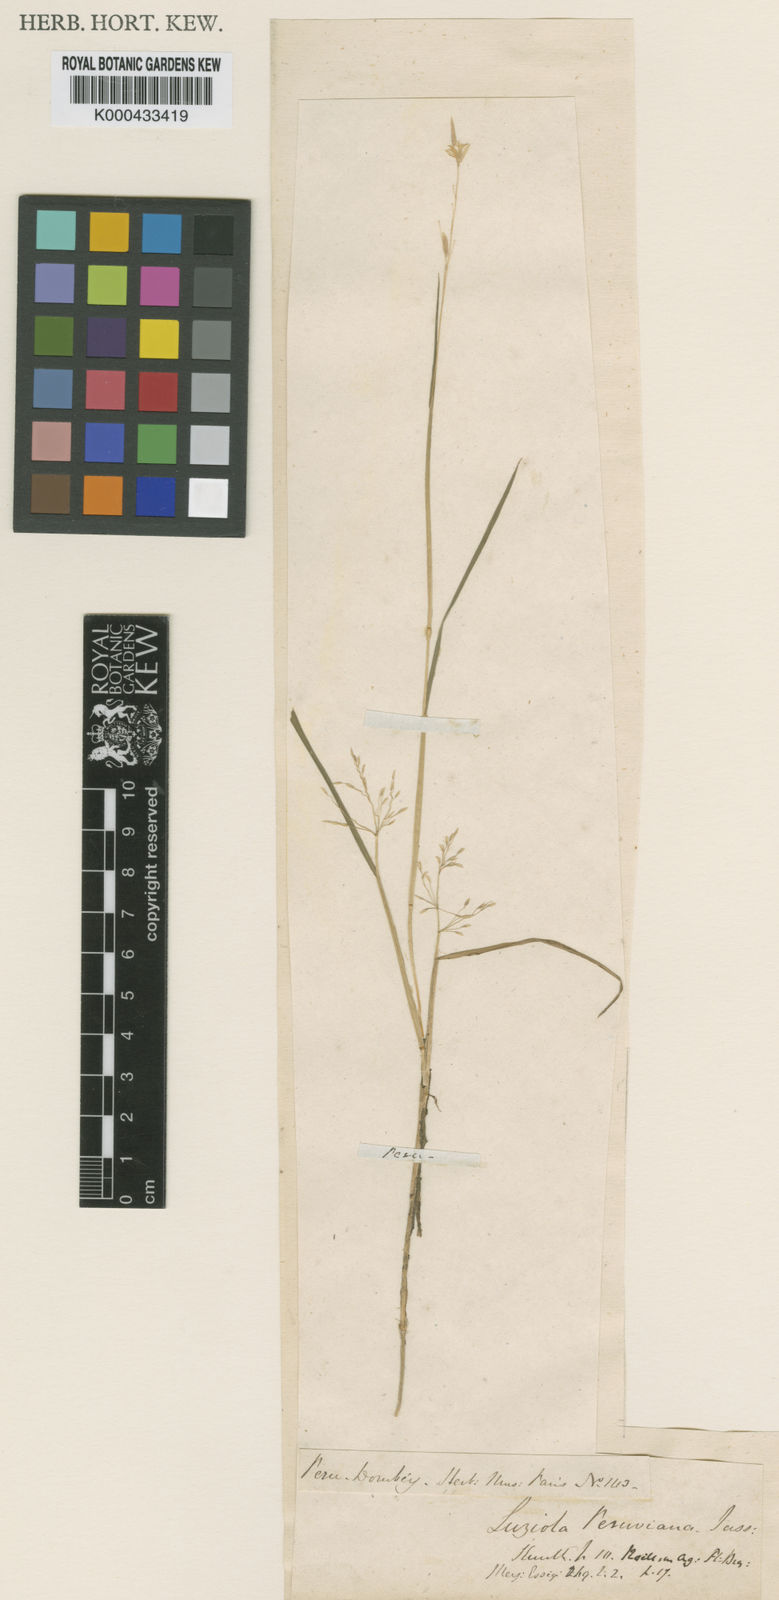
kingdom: Plantae
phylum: Tracheophyta
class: Liliopsida
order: Poales
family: Poaceae
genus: Luziola
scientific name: Luziola peruviana
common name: Peruvian watergrass
